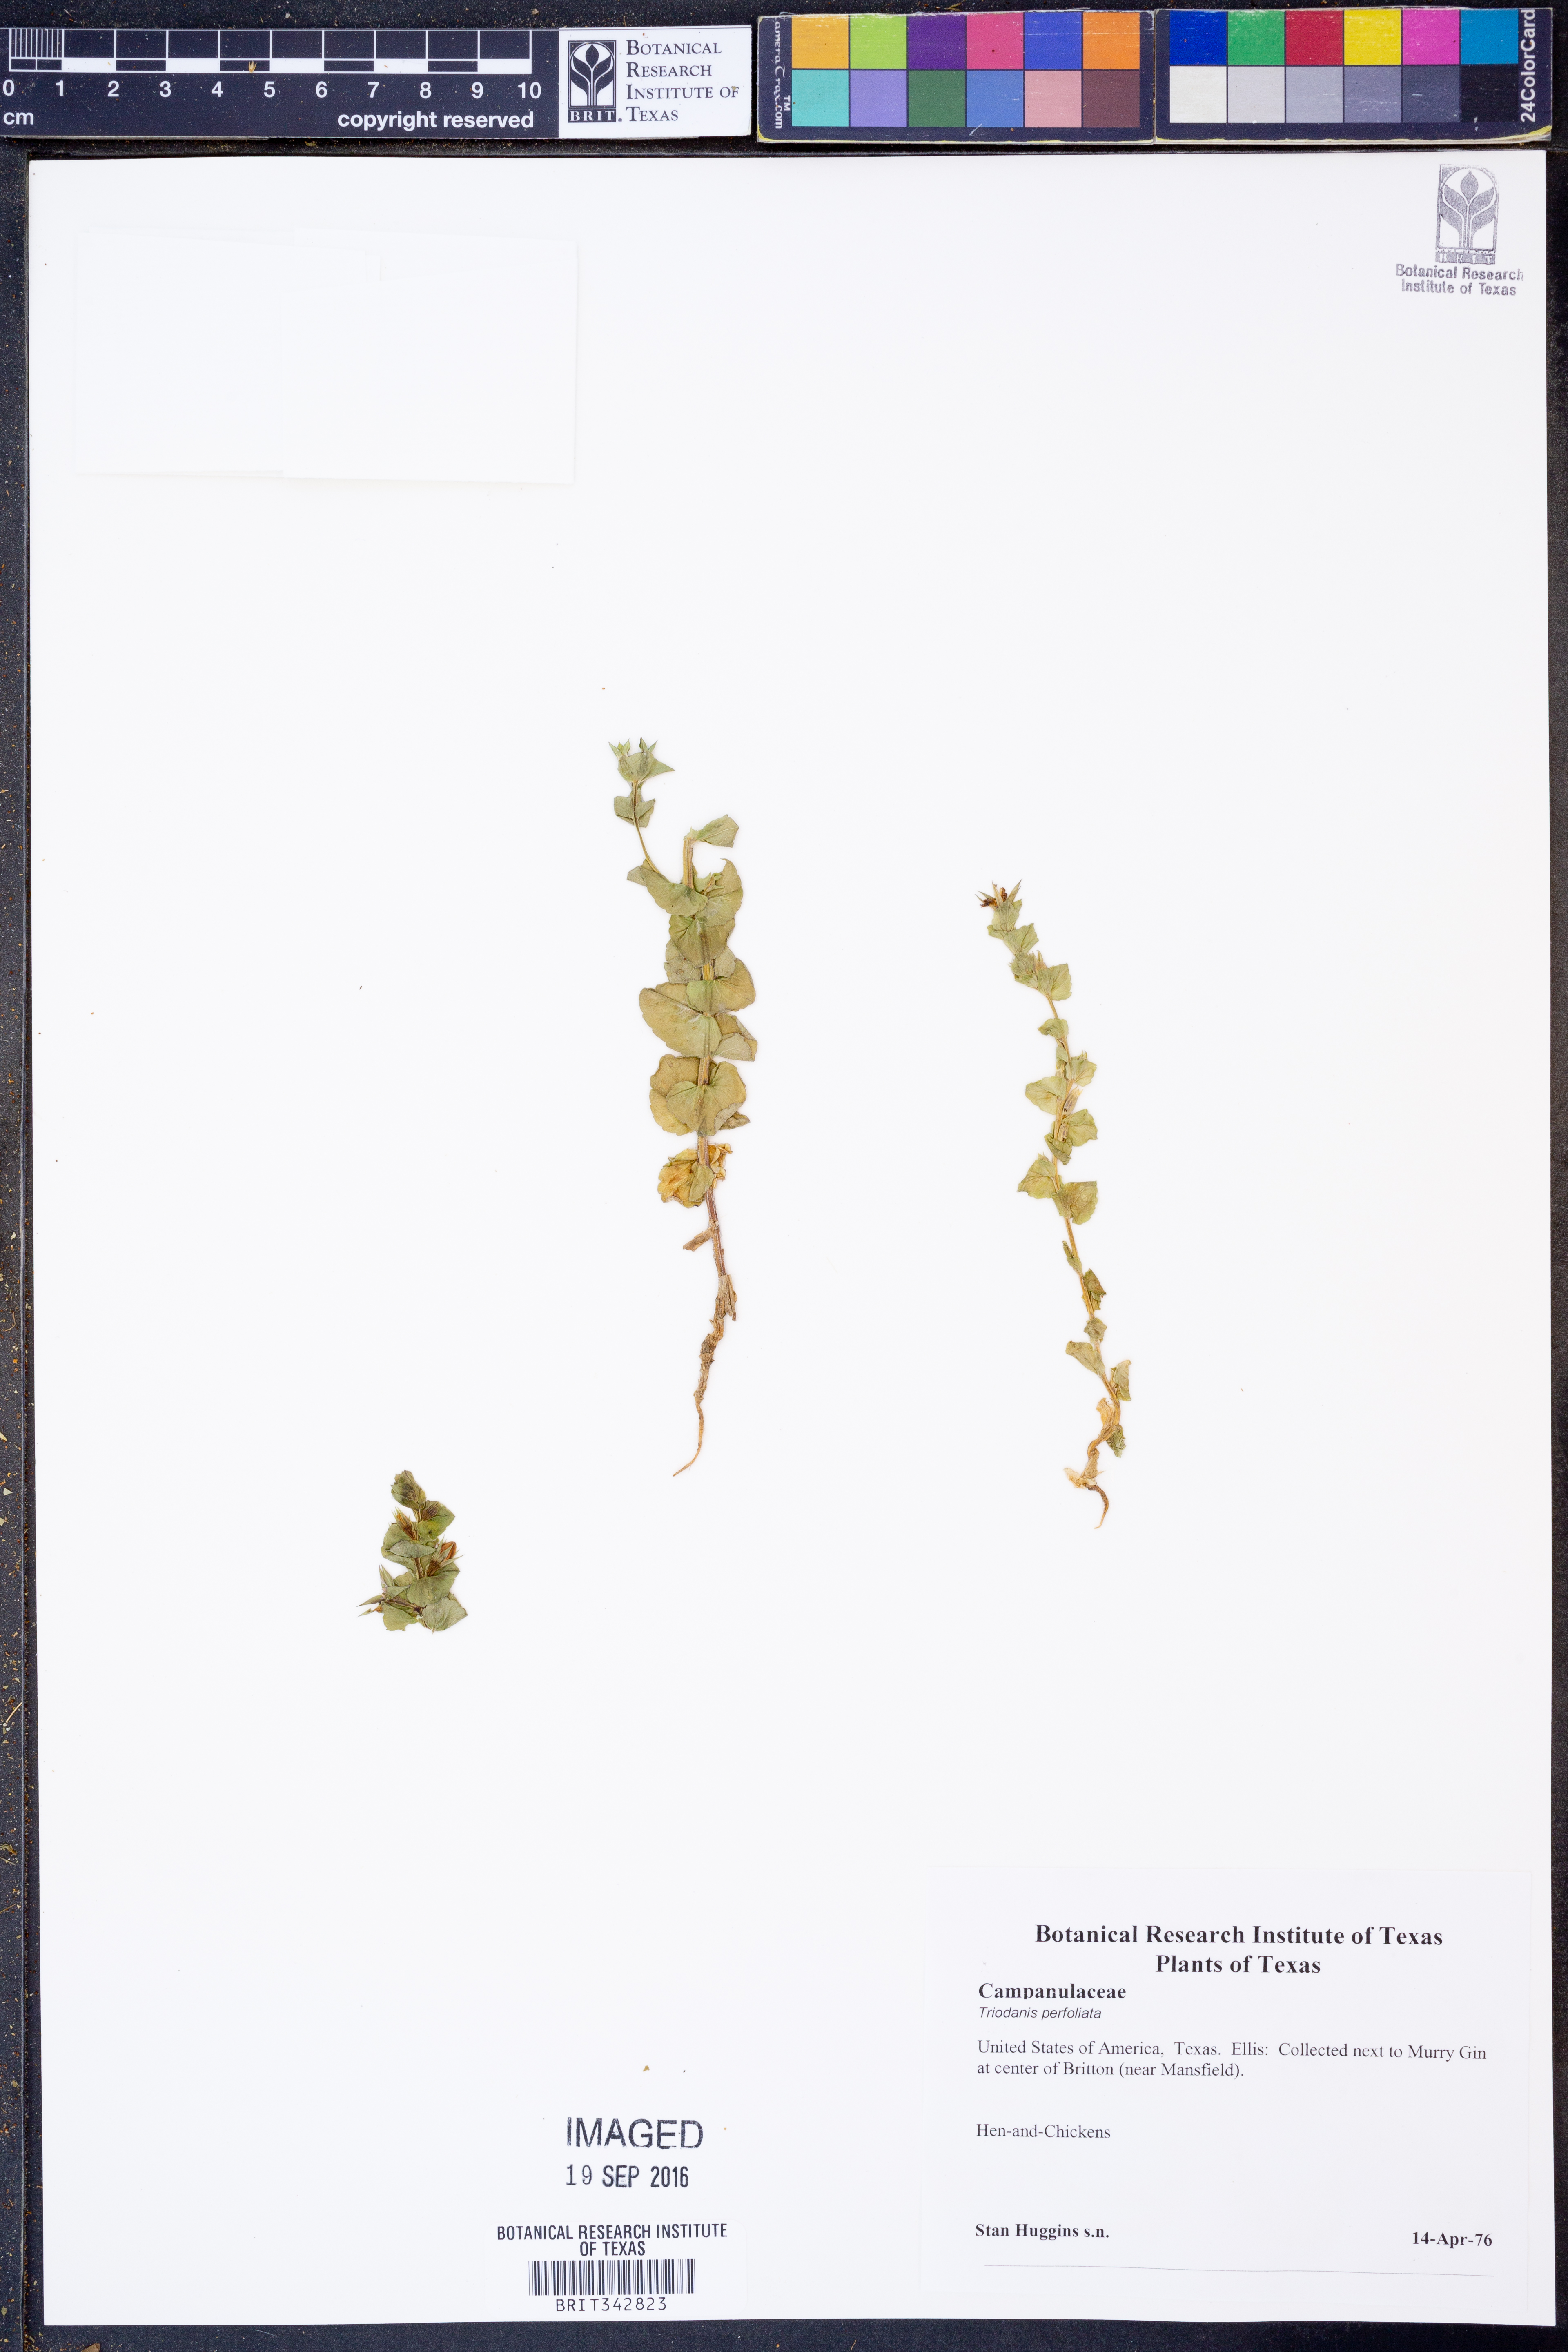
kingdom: Plantae
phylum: Tracheophyta
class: Magnoliopsida
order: Asterales
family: Campanulaceae
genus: Triodanis
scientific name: Triodanis perfoliata
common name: Clasping venus' looking-glass
